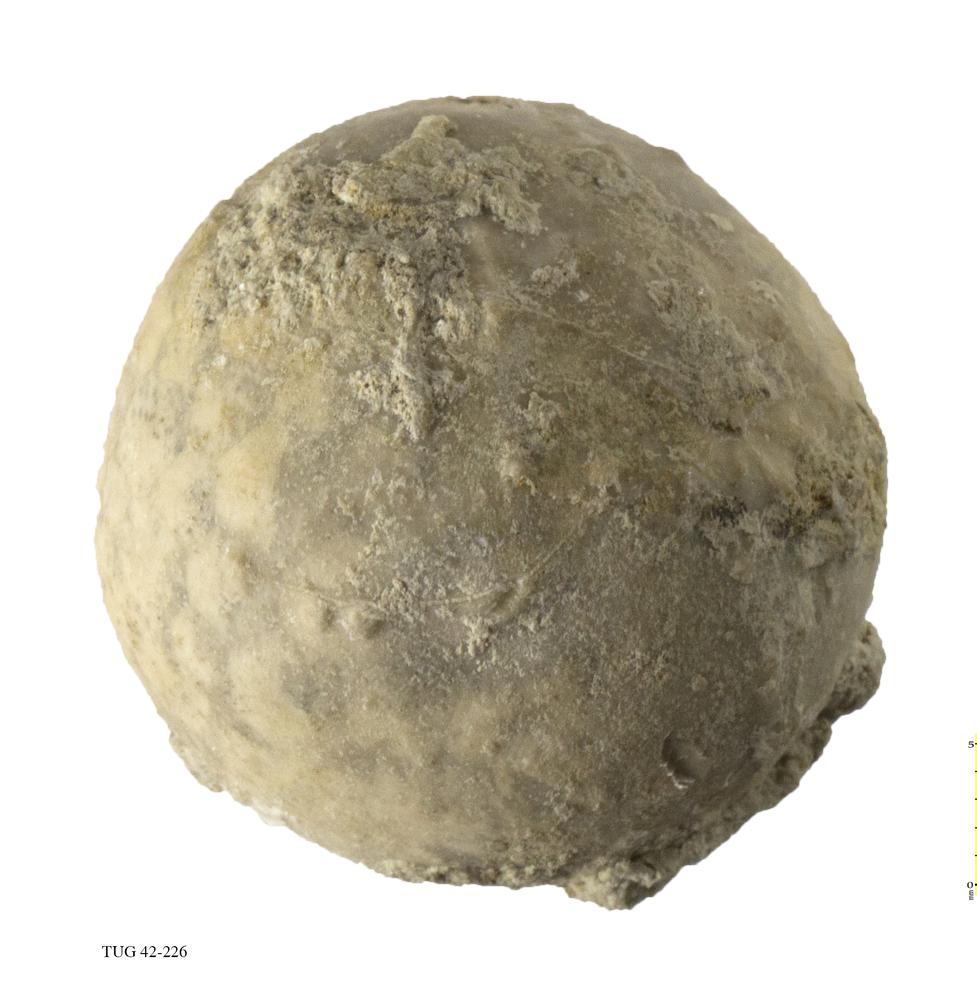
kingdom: Animalia
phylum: Echinodermata
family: Echinosphaeritidae
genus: Echinosphaerites
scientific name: Echinosphaerites Echinus aurantium
